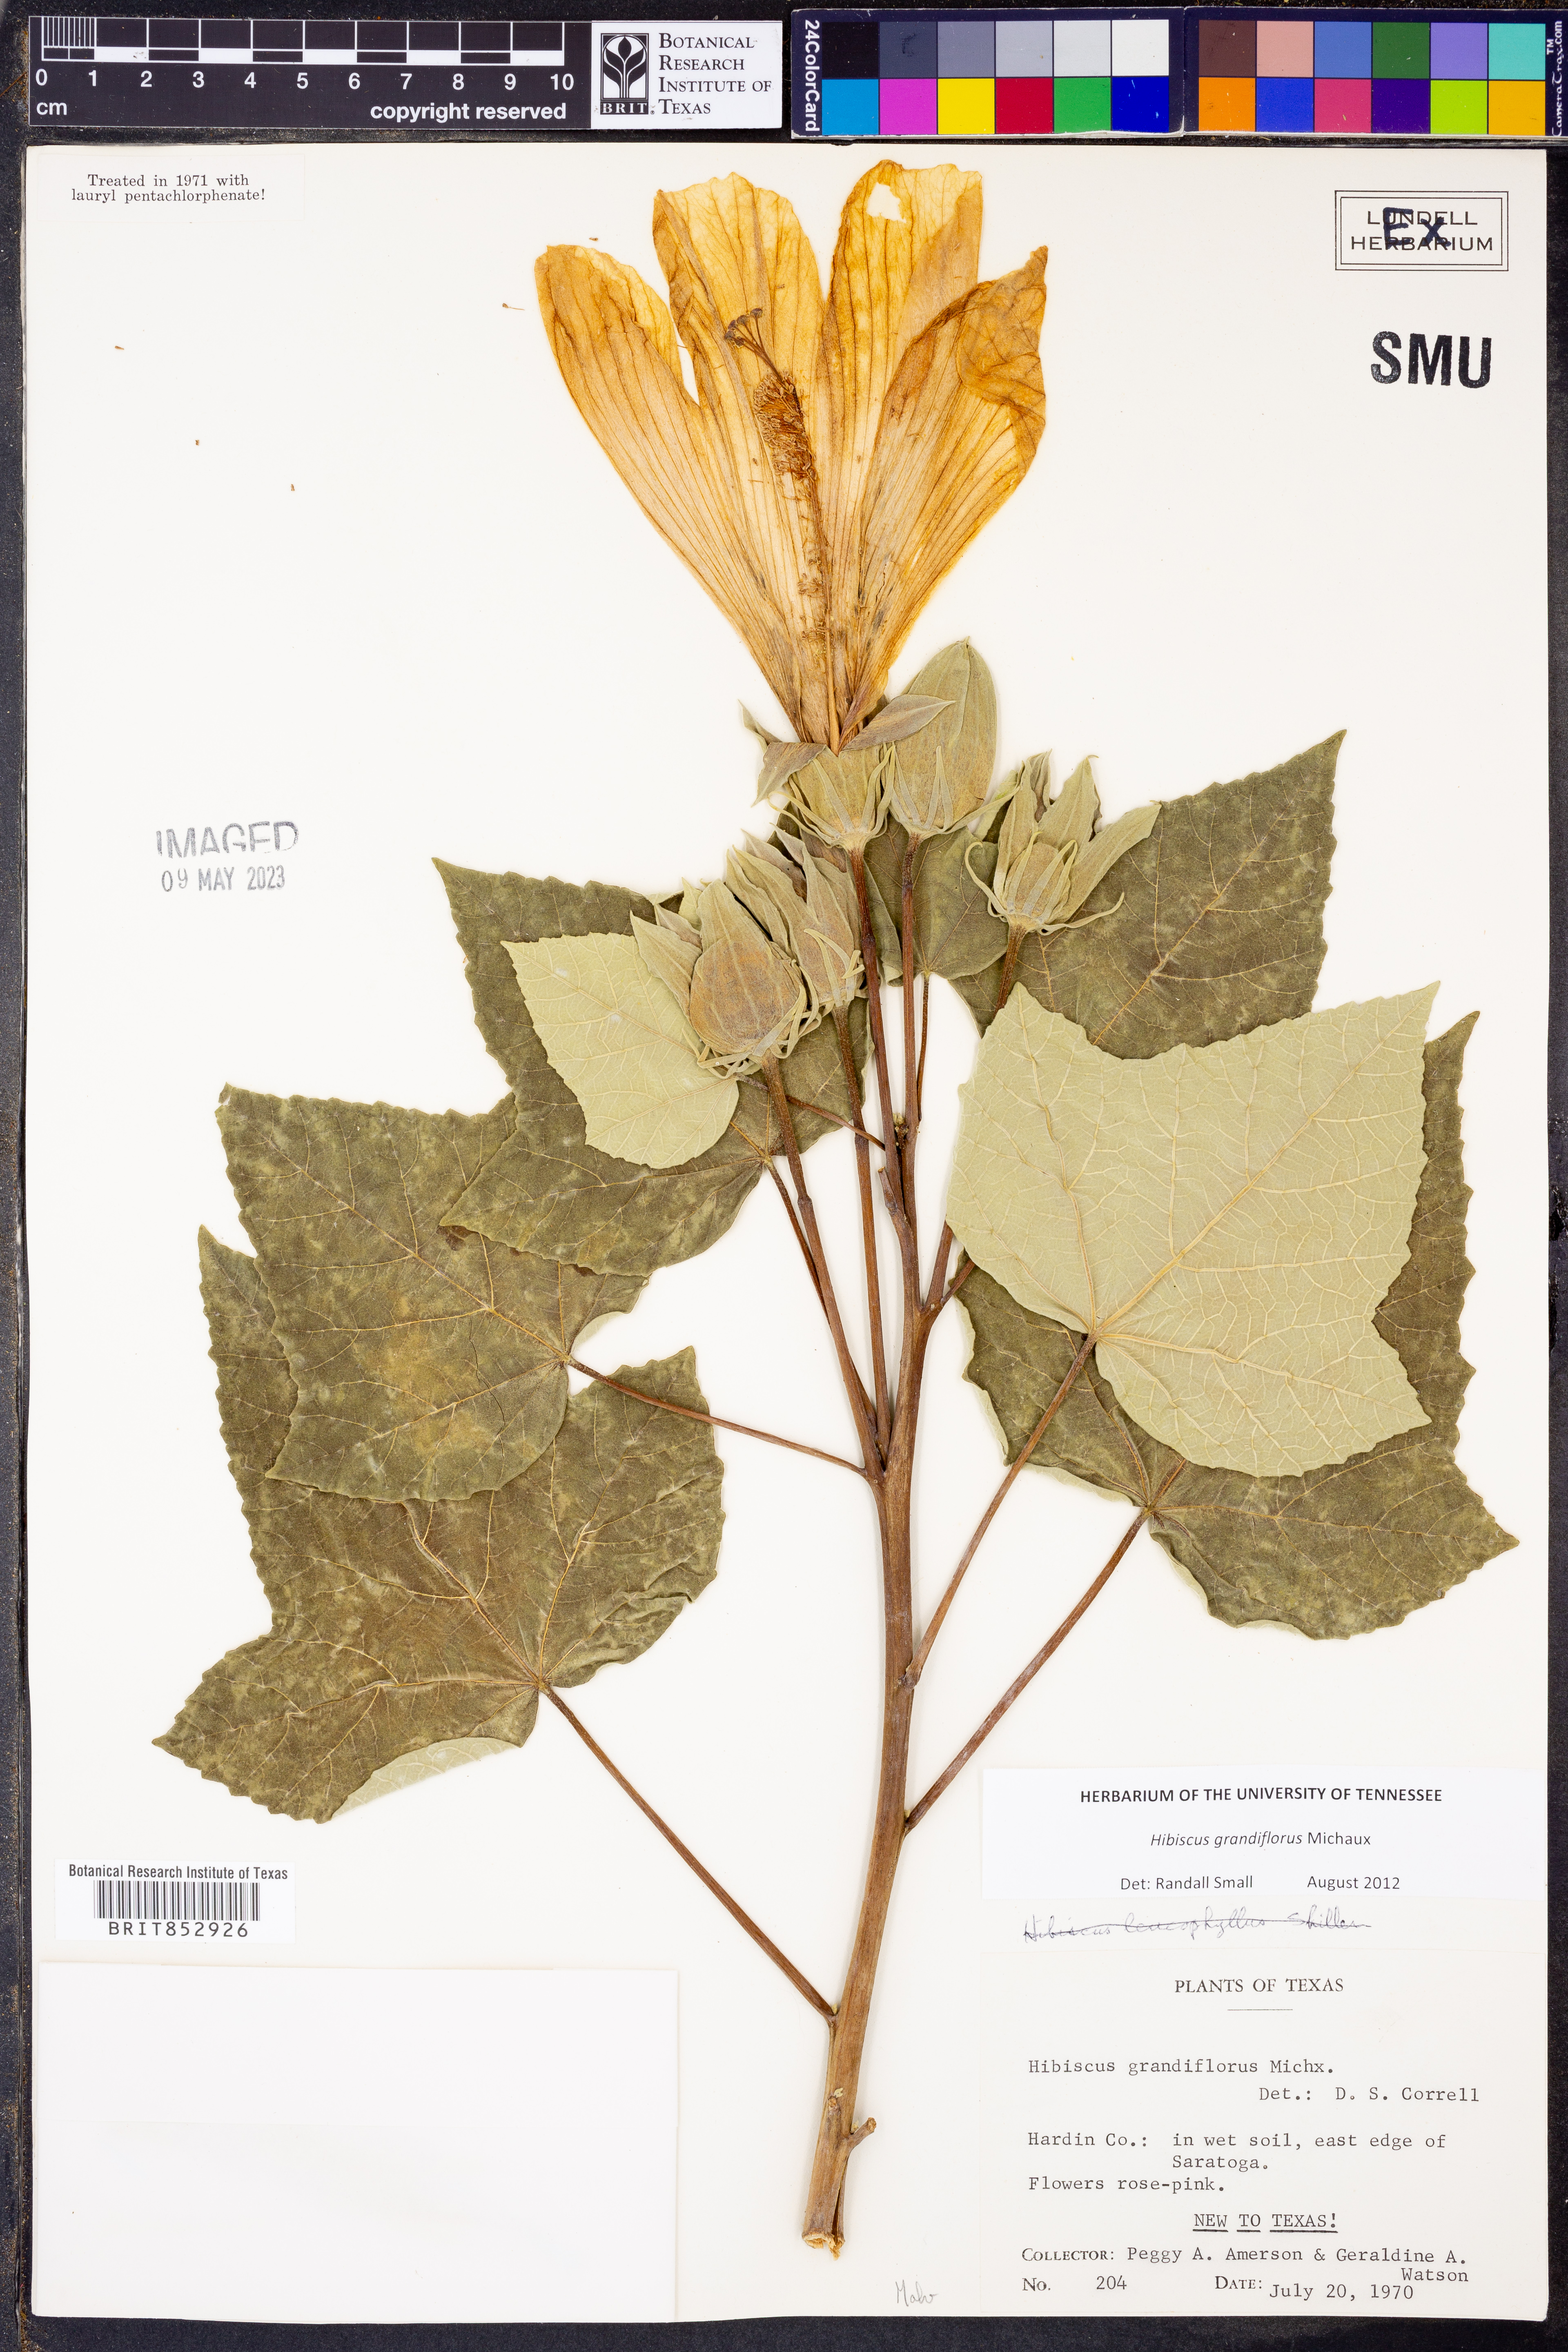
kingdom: Plantae
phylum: Tracheophyta
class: Magnoliopsida
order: Malvales
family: Malvaceae
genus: Hibiscus
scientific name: Hibiscus grandiflorus
